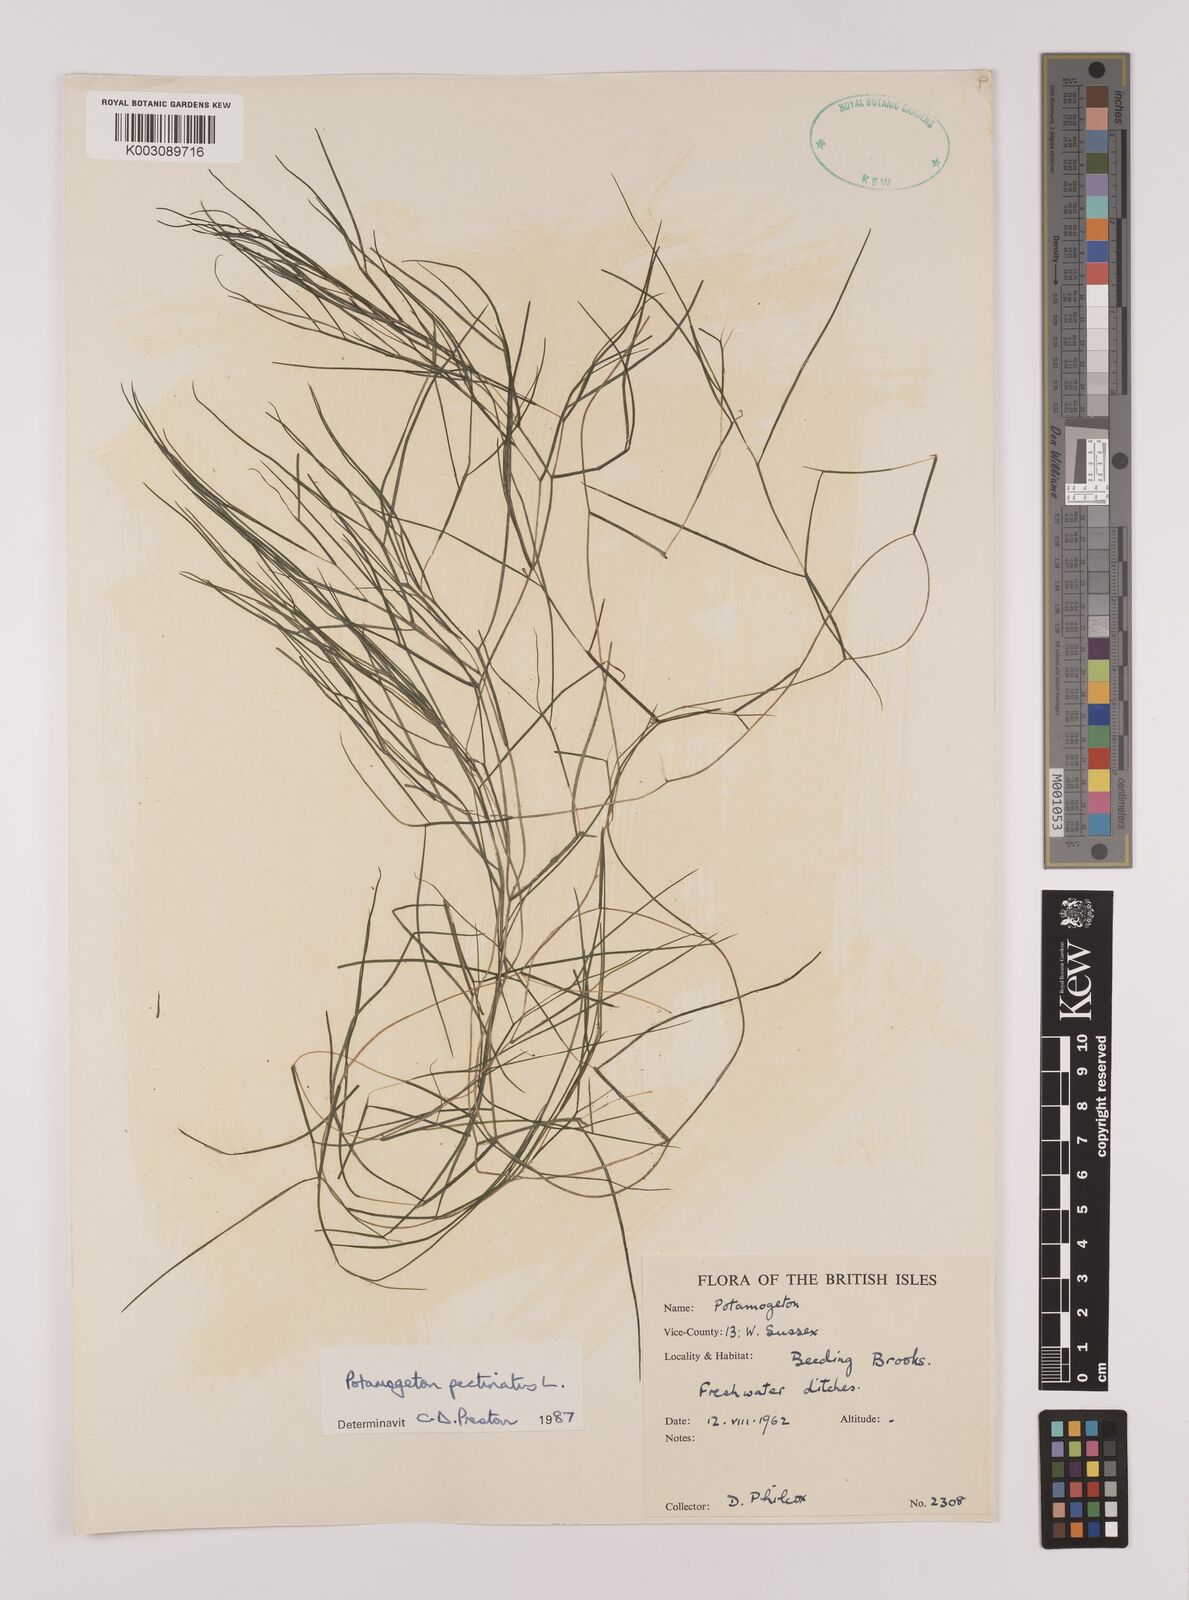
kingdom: Plantae
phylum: Tracheophyta
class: Liliopsida
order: Alismatales
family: Potamogetonaceae
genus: Stuckenia
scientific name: Stuckenia pectinata
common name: Sago pondweed
